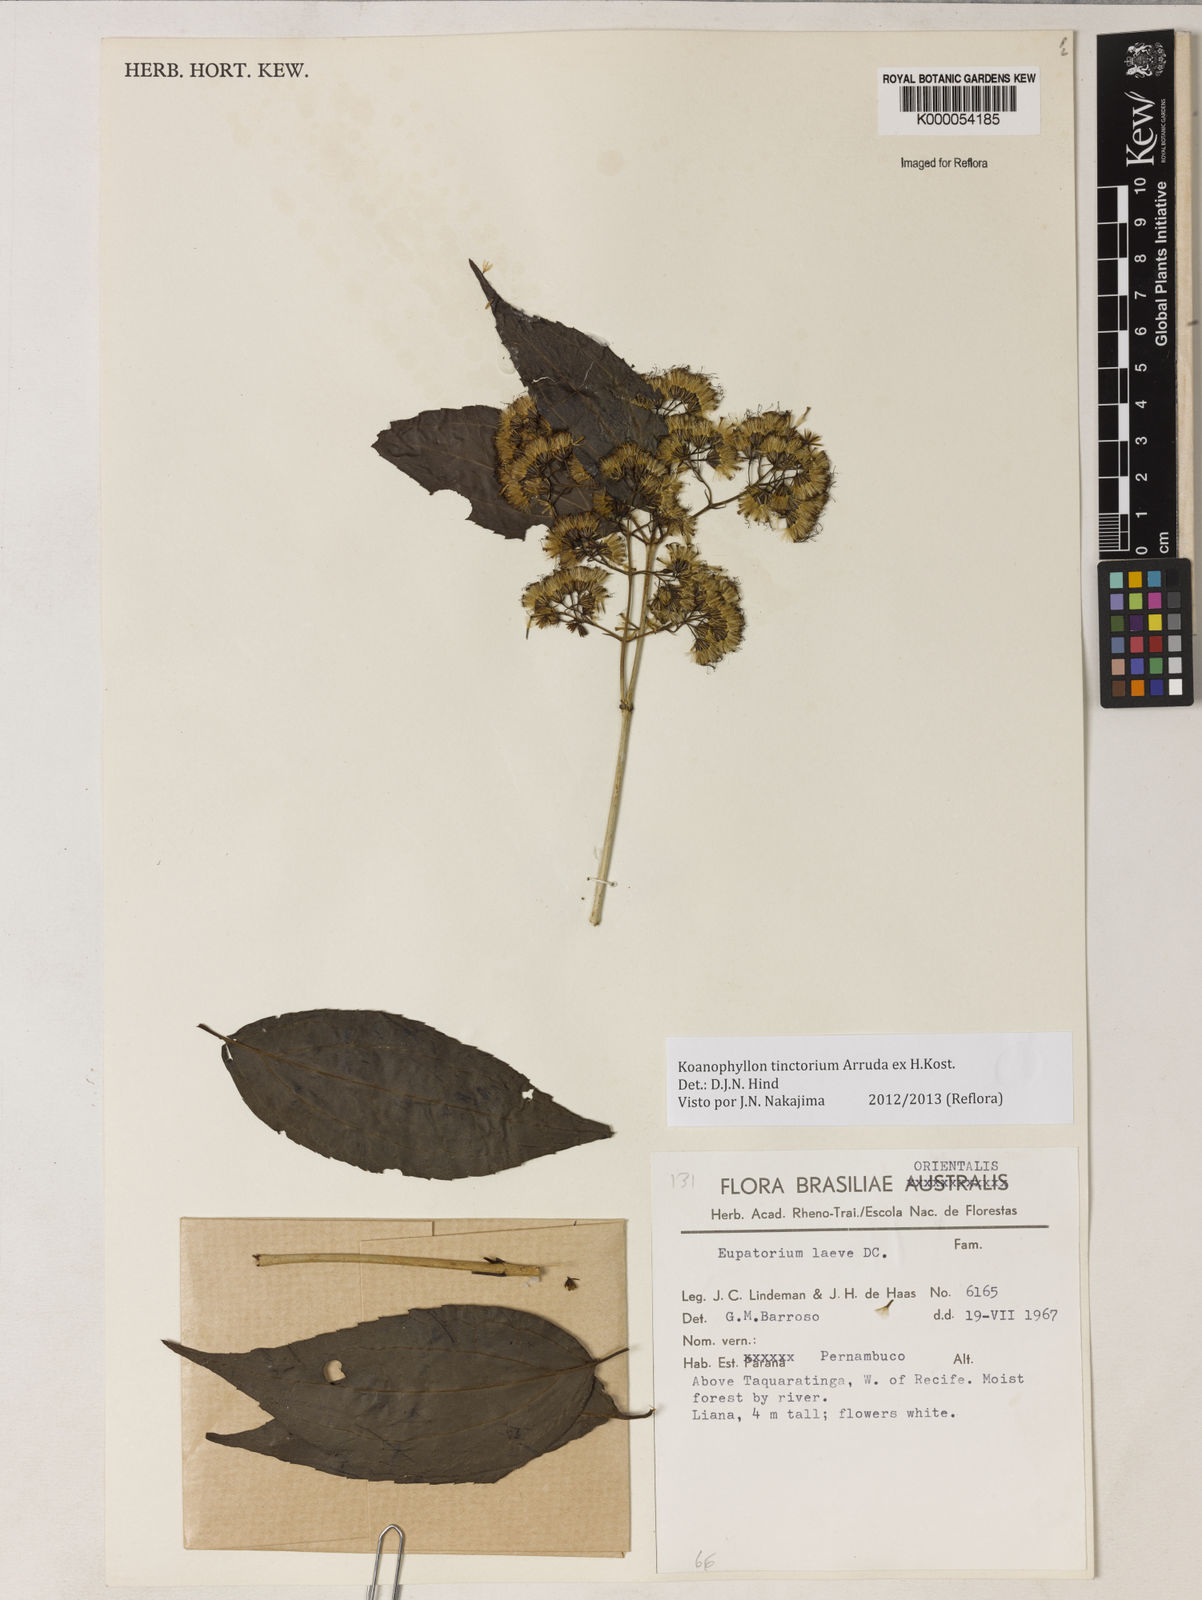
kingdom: Plantae
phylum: Tracheophyta
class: Magnoliopsida
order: Asterales
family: Asteraceae
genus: Koanophyllon
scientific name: Koanophyllon
